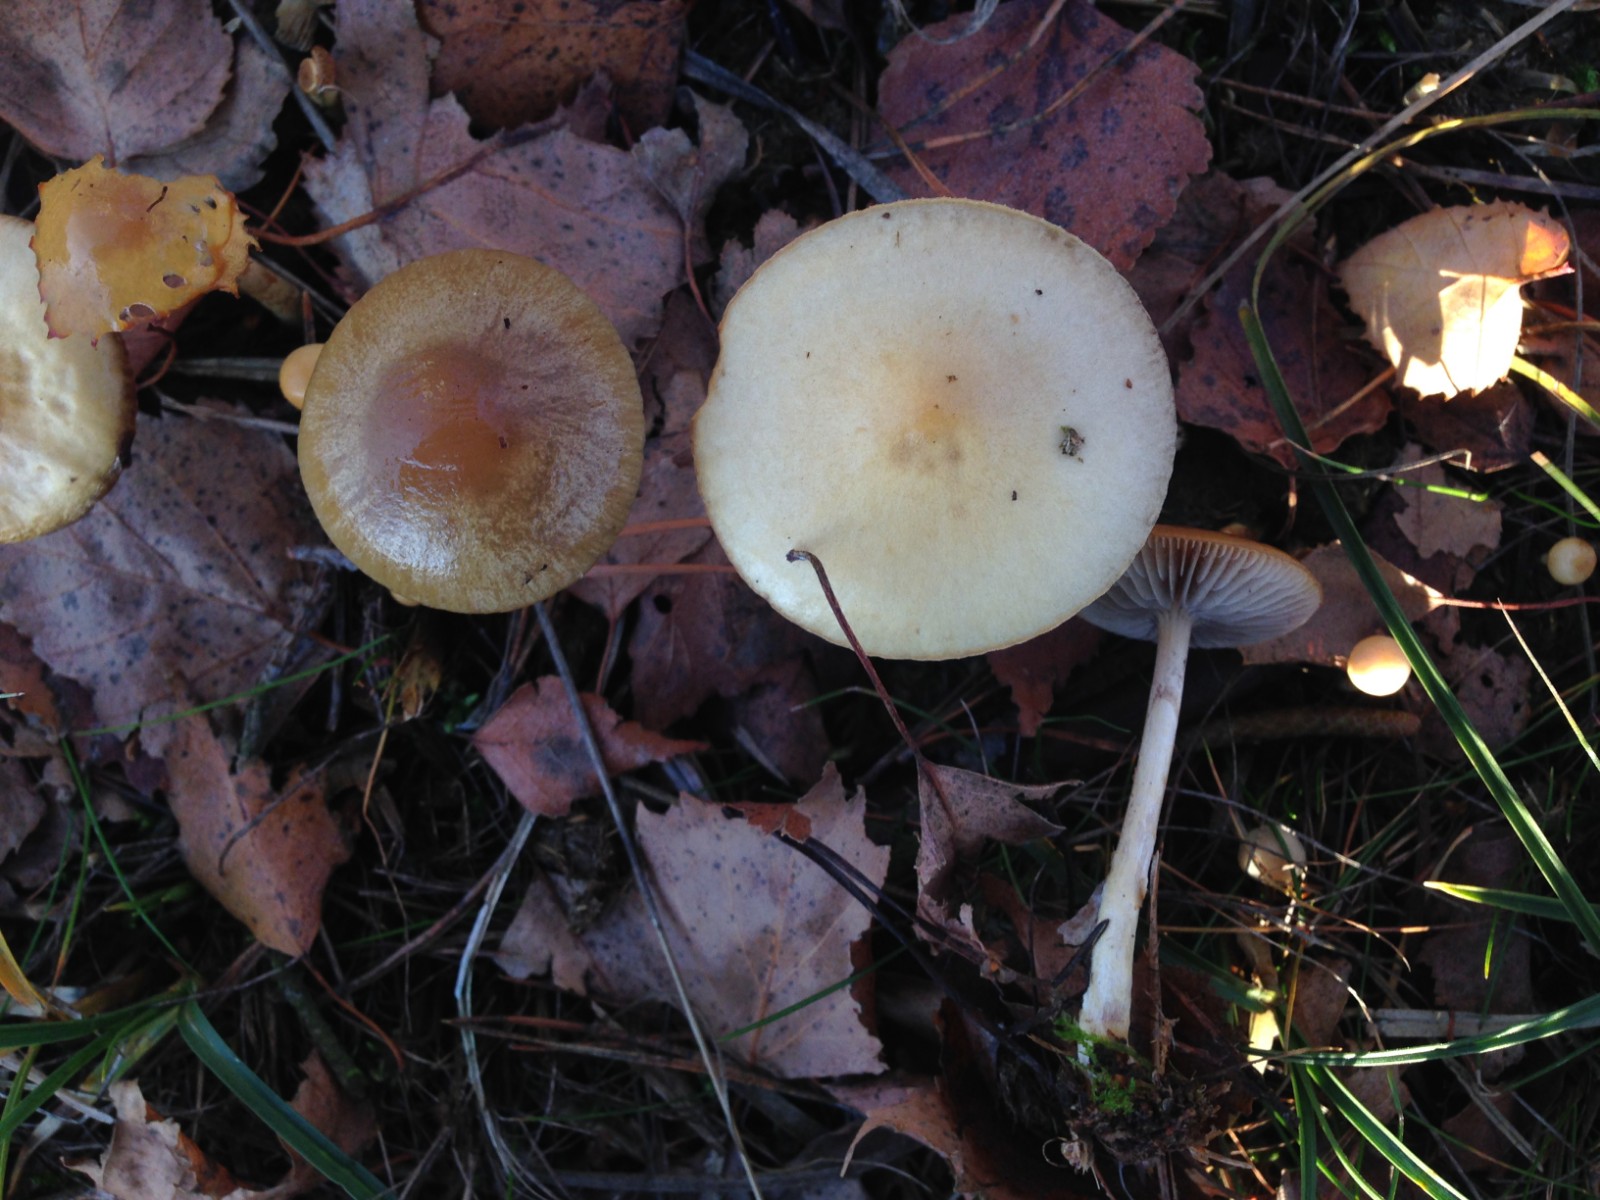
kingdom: Fungi
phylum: Basidiomycota
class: Agaricomycetes
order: Agaricales
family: Strophariaceae
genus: Protostropharia
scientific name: Protostropharia semiglobata
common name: halvkugleformet bredblad
